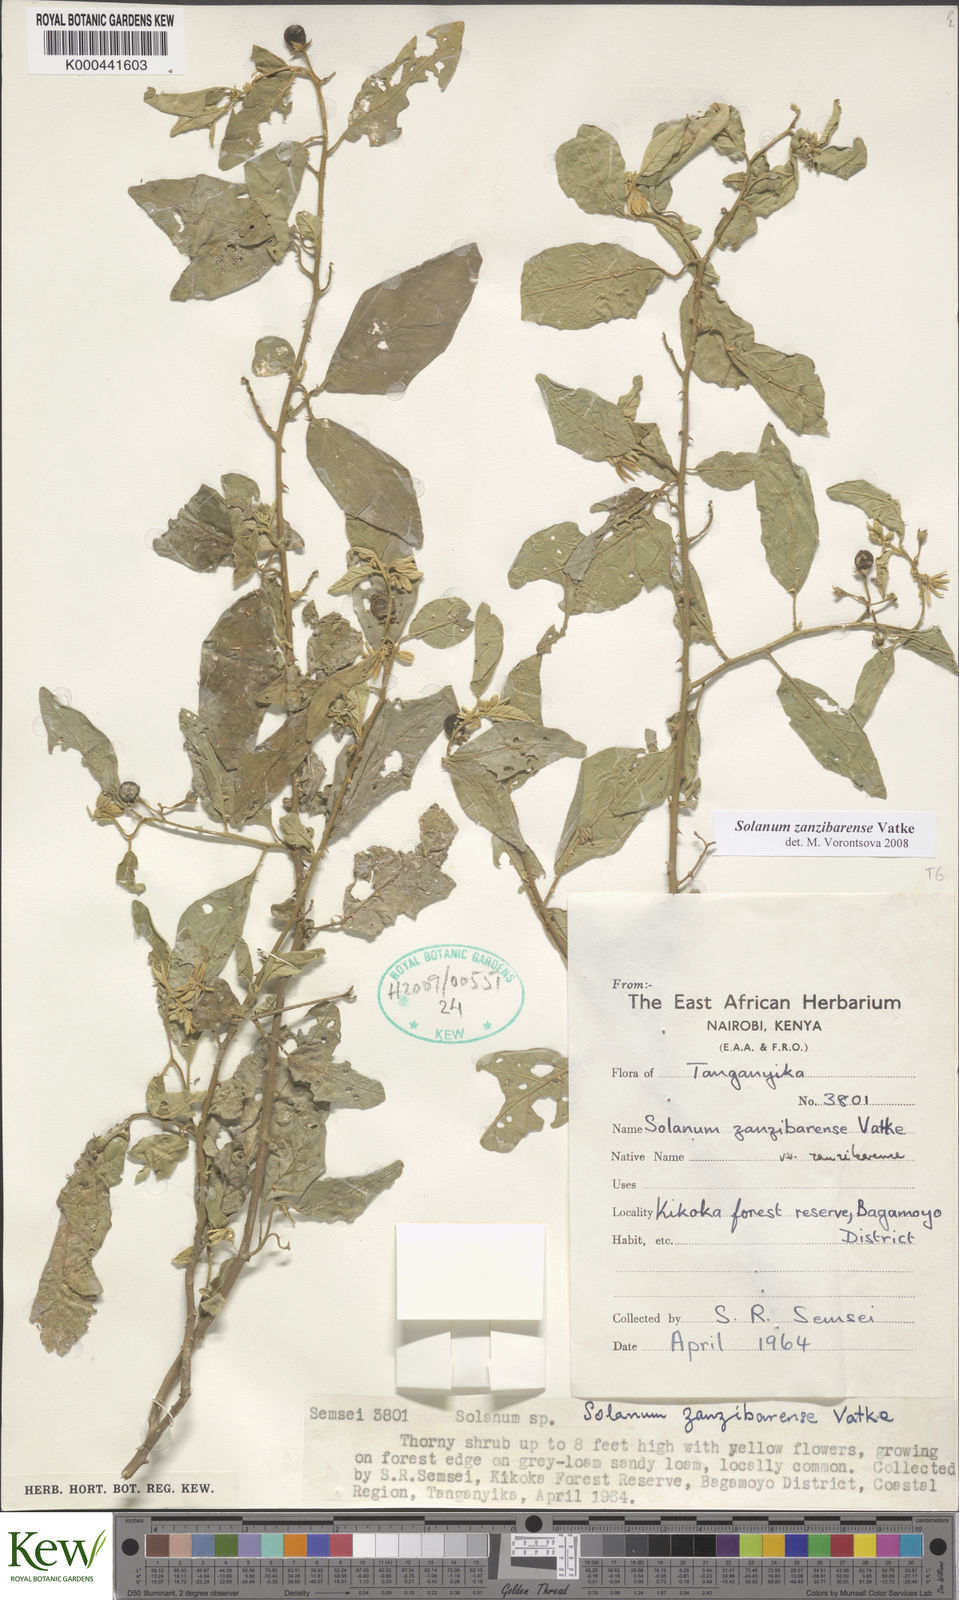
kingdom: Plantae
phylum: Tracheophyta
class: Magnoliopsida
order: Solanales
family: Solanaceae
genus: Solanum
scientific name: Solanum zanzibarense
